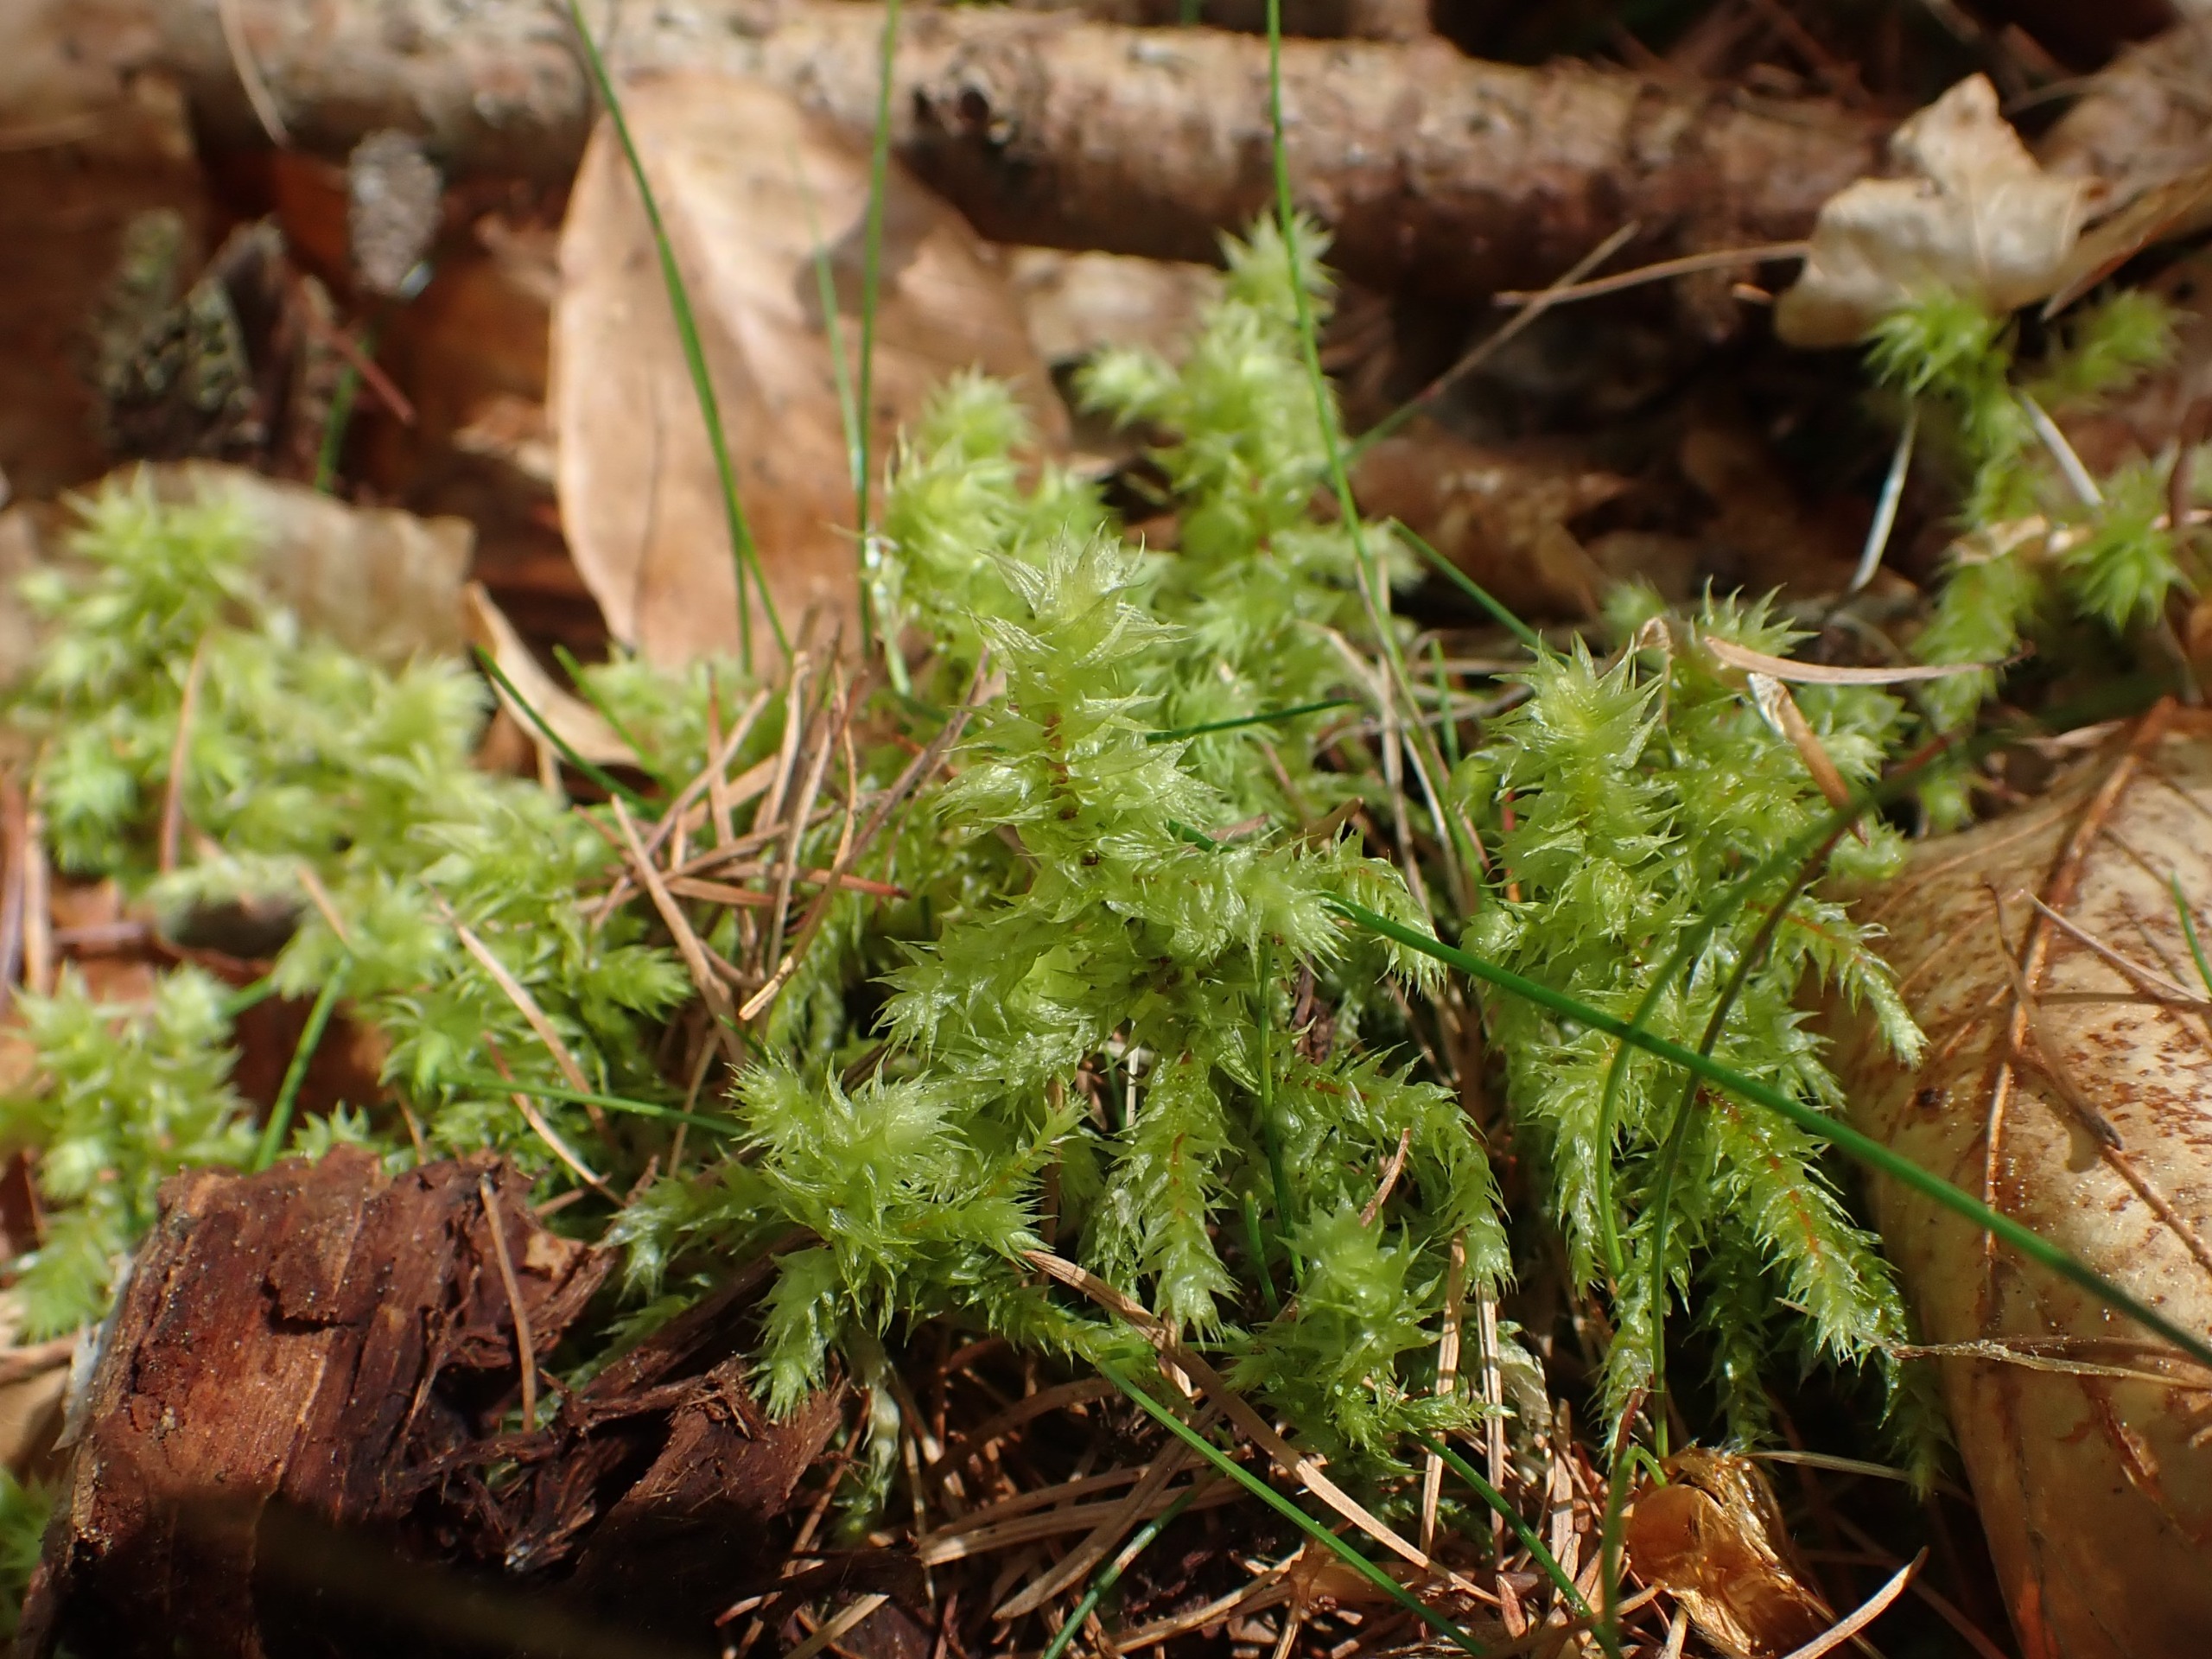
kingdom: Plantae
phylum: Bryophyta
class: Bryopsida
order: Hypnales
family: Hylocomiaceae
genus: Hylocomiadelphus
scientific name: Hylocomiadelphus triquetrus
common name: Stor kransemos
